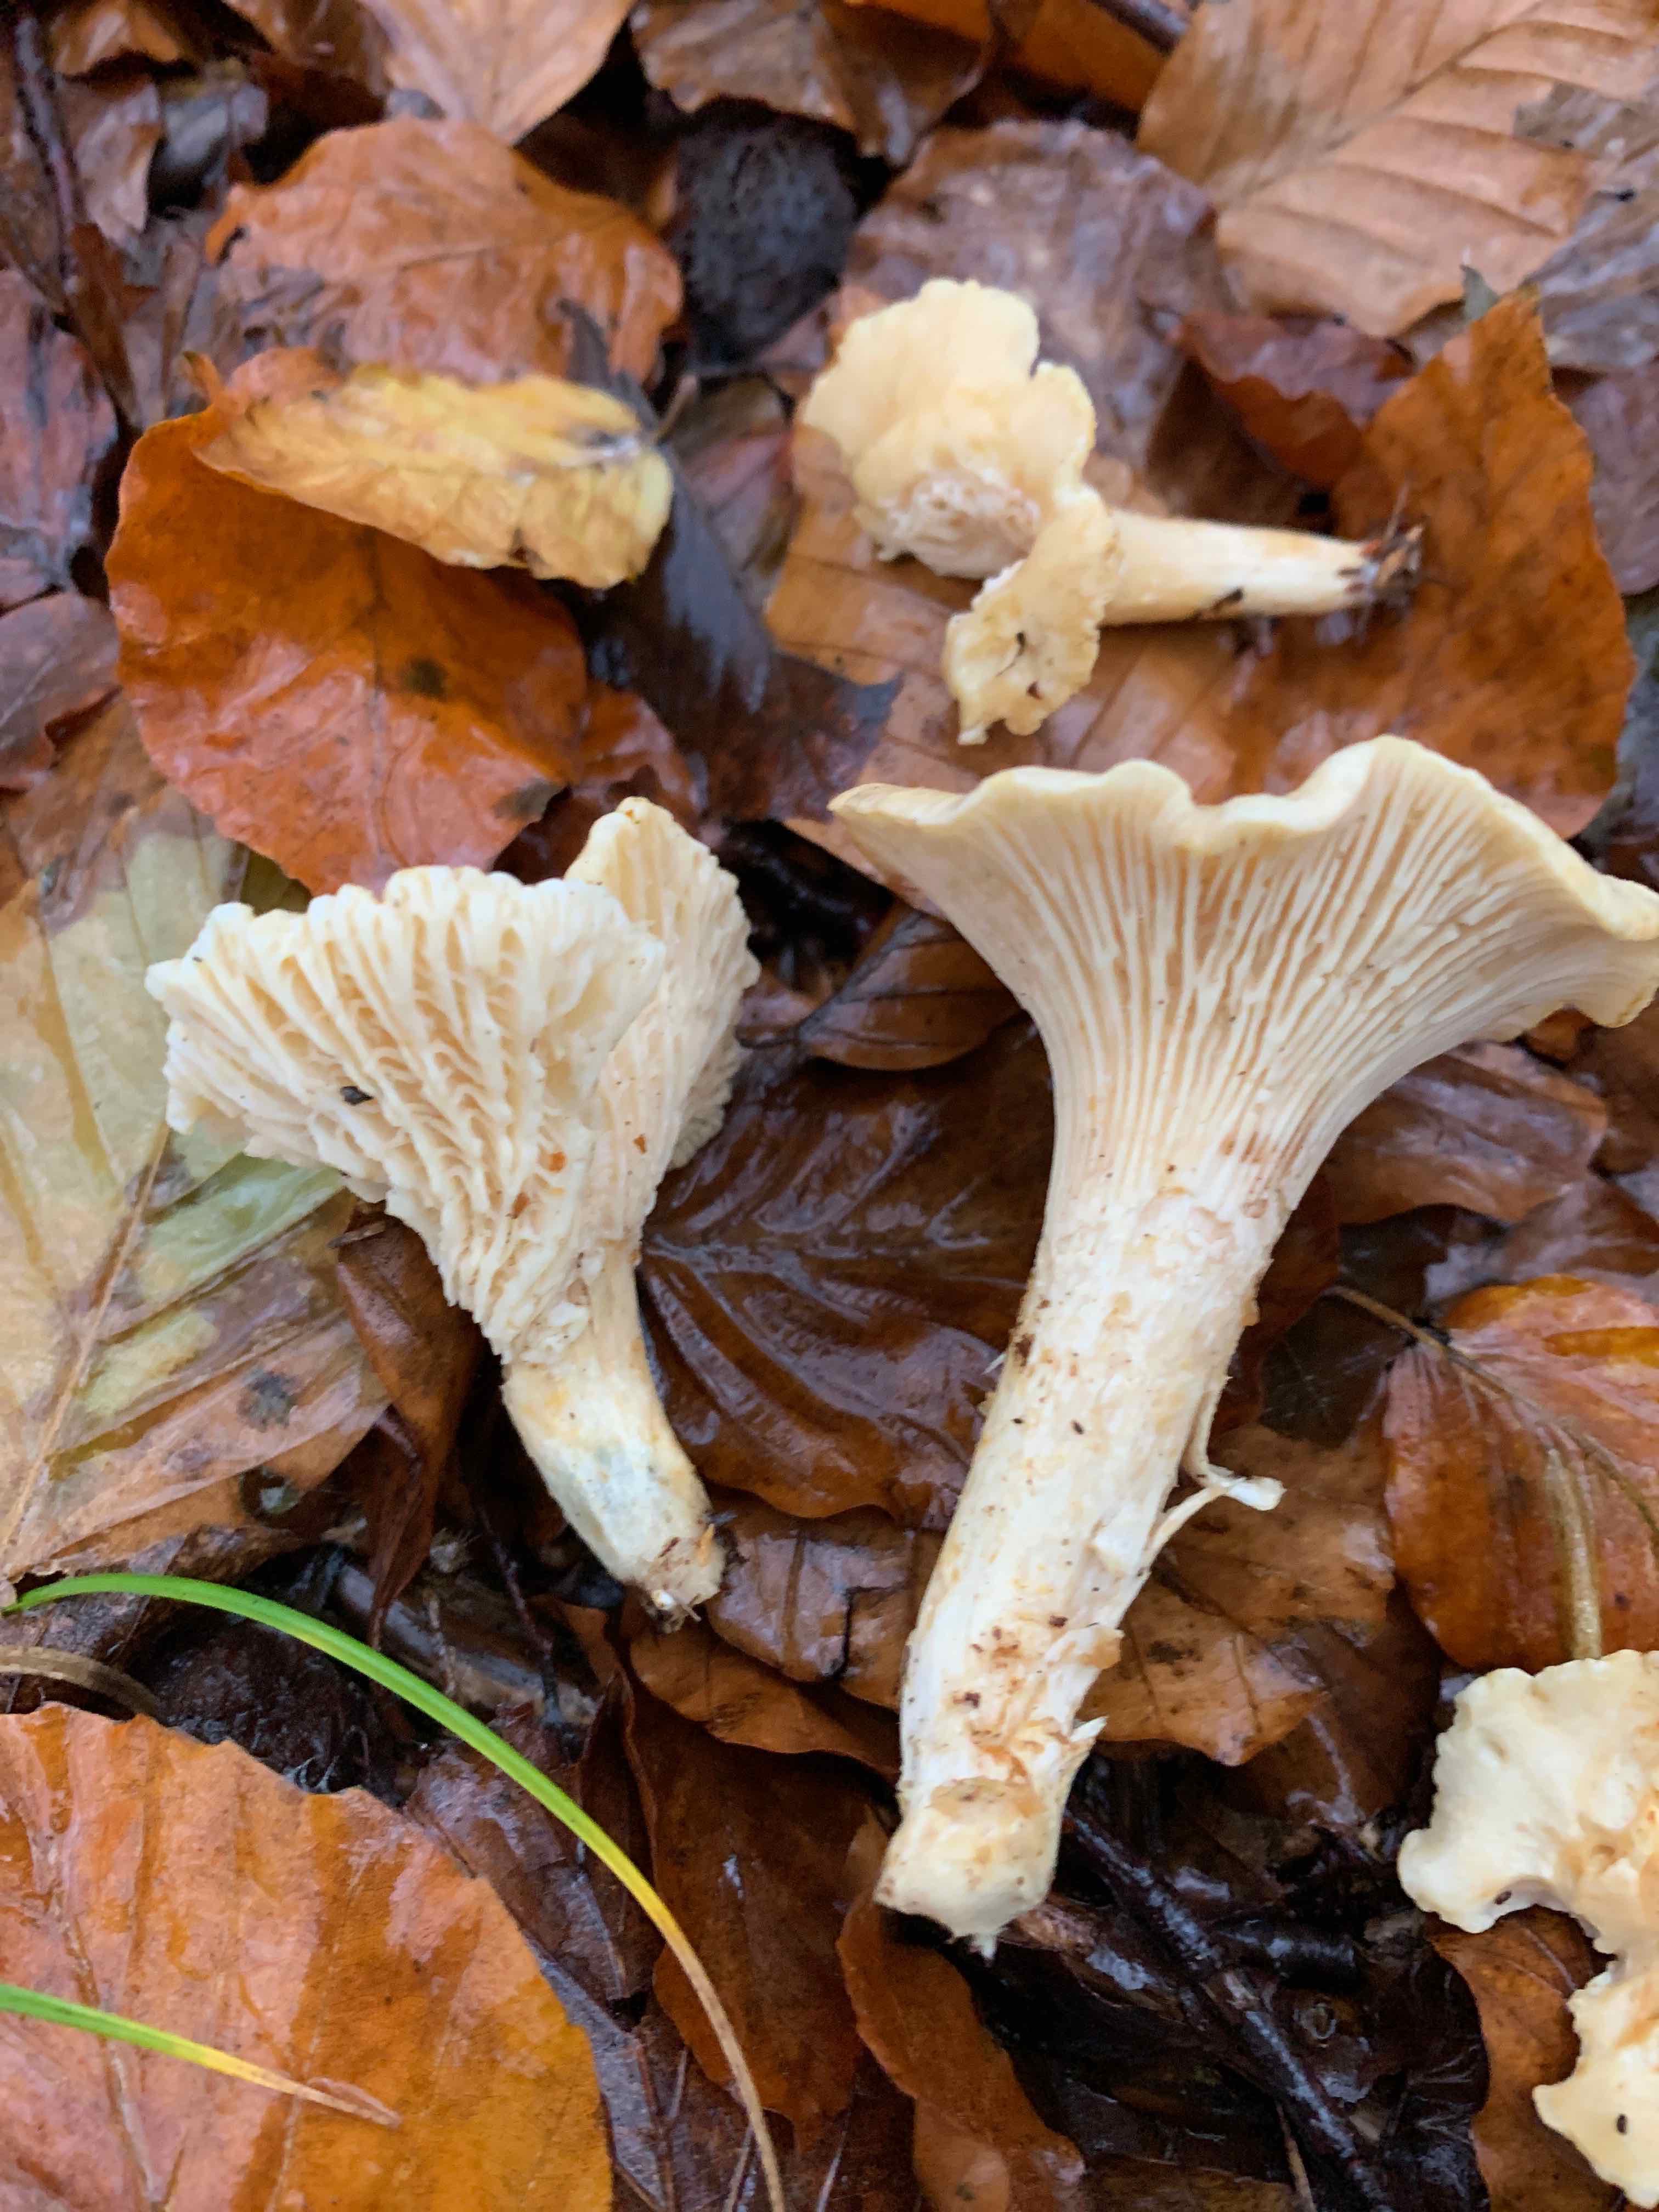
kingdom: Fungi
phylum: Basidiomycota
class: Agaricomycetes
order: Cantharellales
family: Hydnaceae
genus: Cantharellus
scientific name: Cantharellus pallens
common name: bleg kantarel
